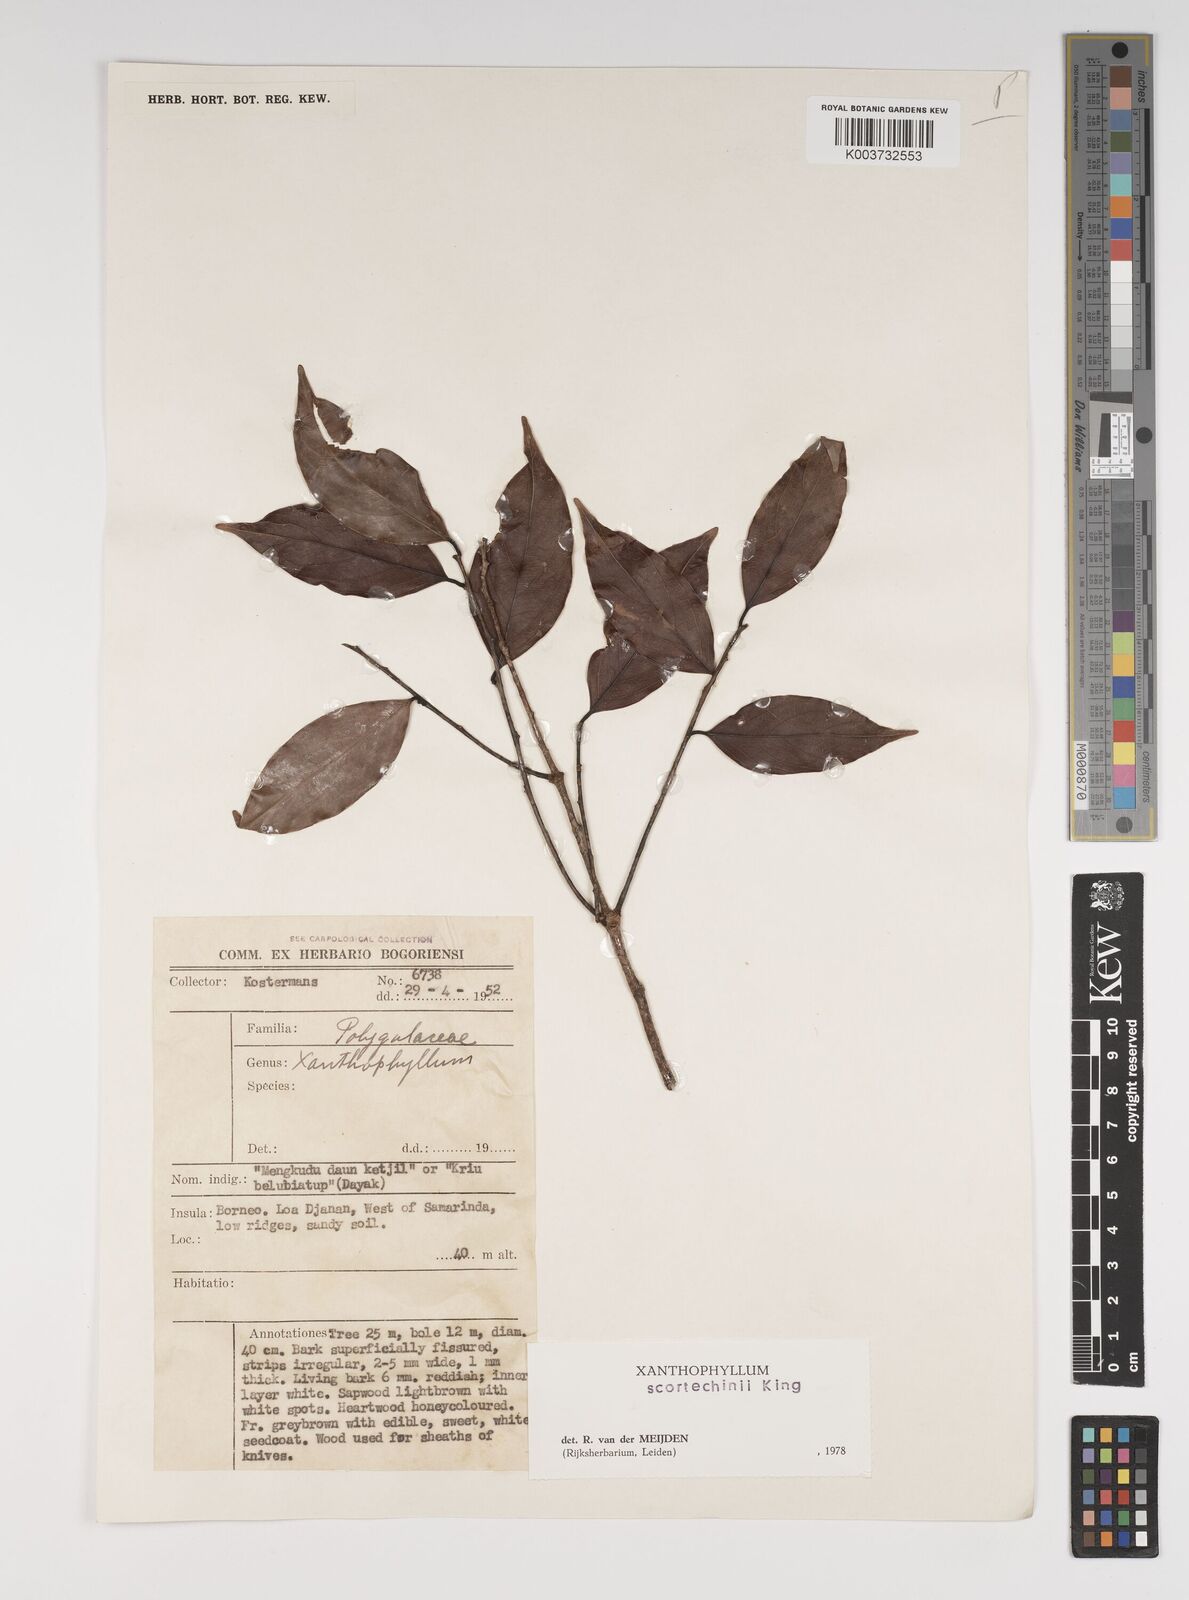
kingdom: Plantae
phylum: Tracheophyta
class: Magnoliopsida
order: Fabales
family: Polygalaceae
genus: Xanthophyllum
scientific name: Xanthophyllum obscurum
